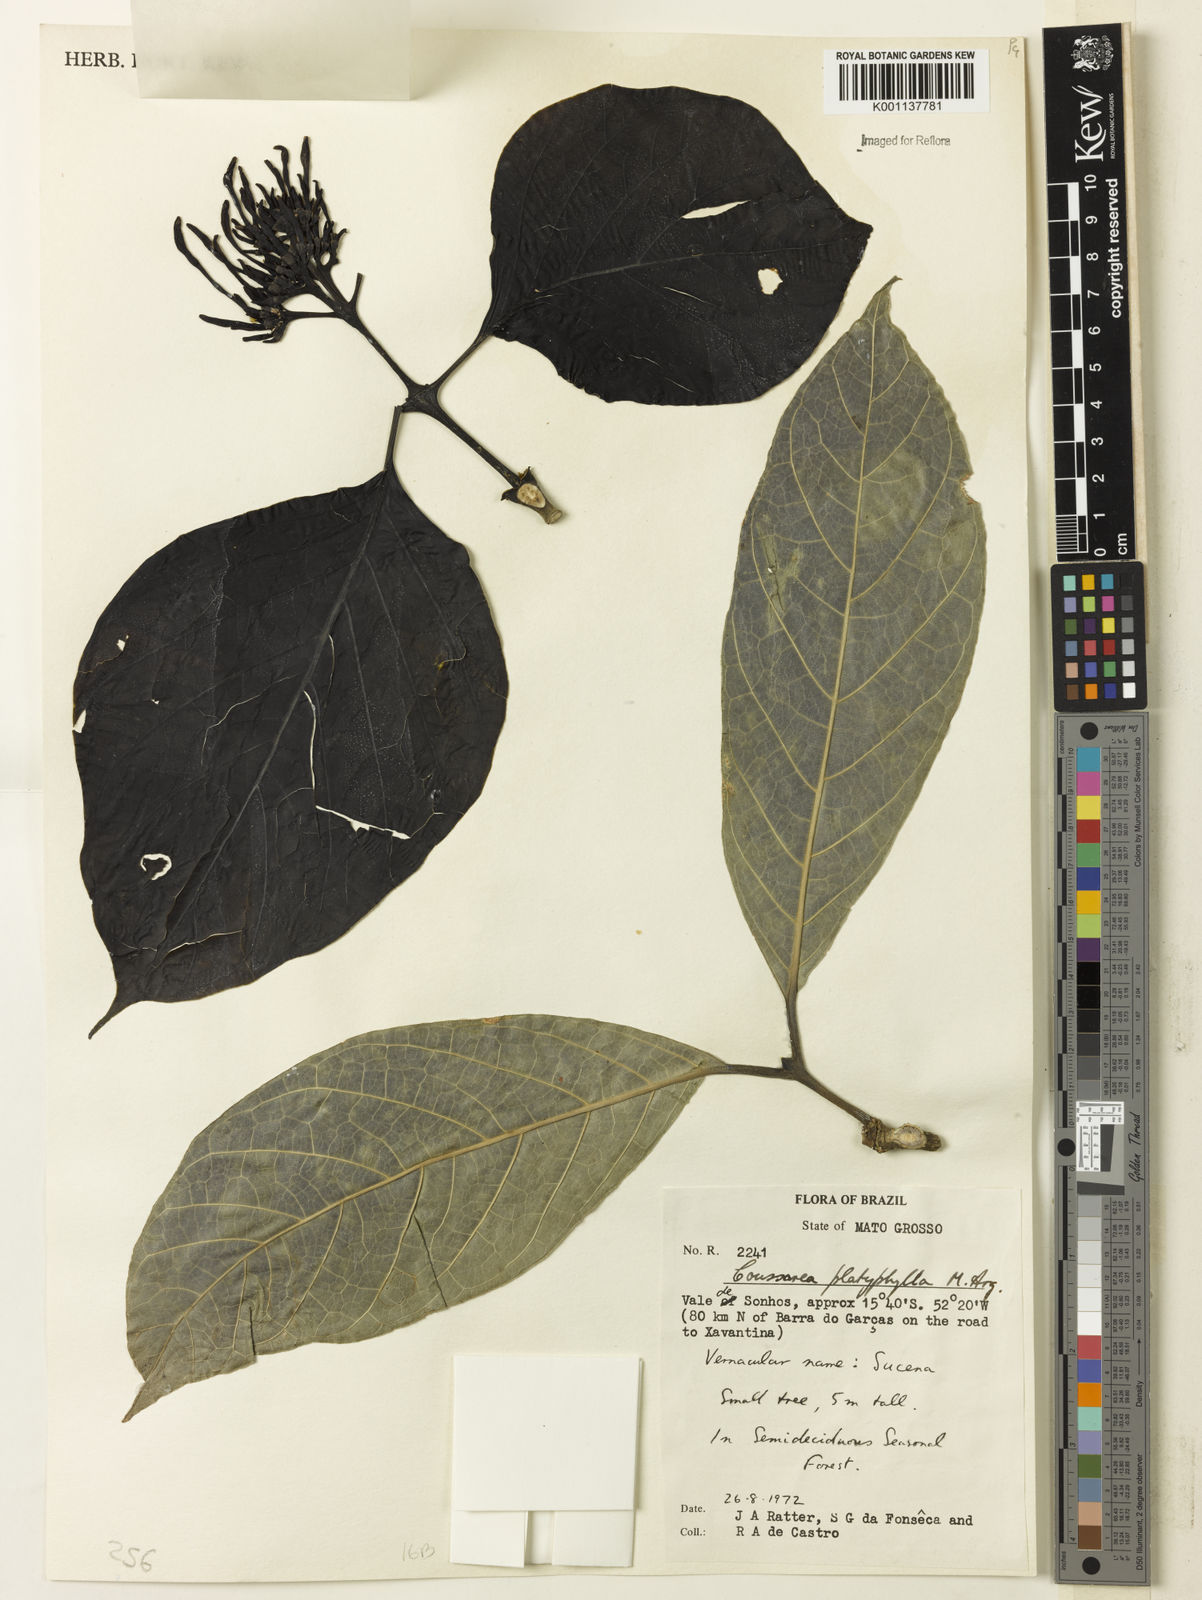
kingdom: Plantae
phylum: Tracheophyta
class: Magnoliopsida
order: Gentianales
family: Rubiaceae
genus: Coussarea
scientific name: Coussarea
